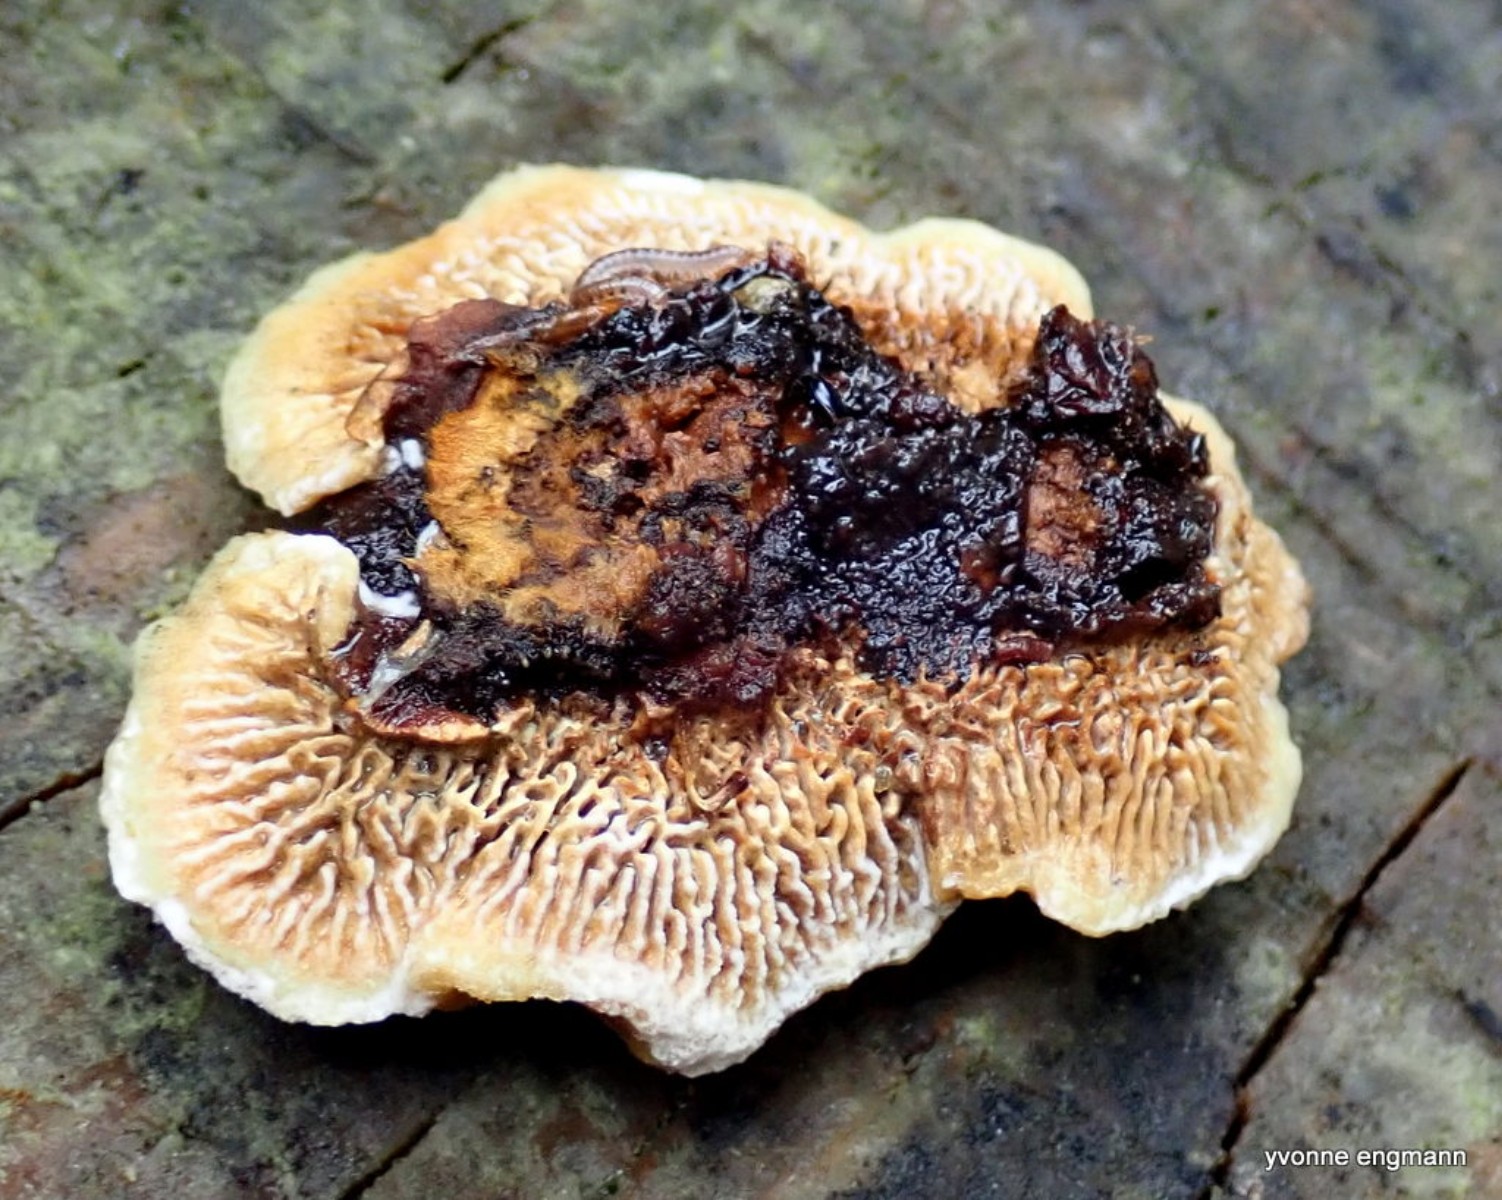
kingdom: Fungi
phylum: Basidiomycota
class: Agaricomycetes
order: Gloeophyllales
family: Gloeophyllaceae
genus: Gloeophyllum
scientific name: Gloeophyllum sepiarium
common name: fyrre-korkhat
